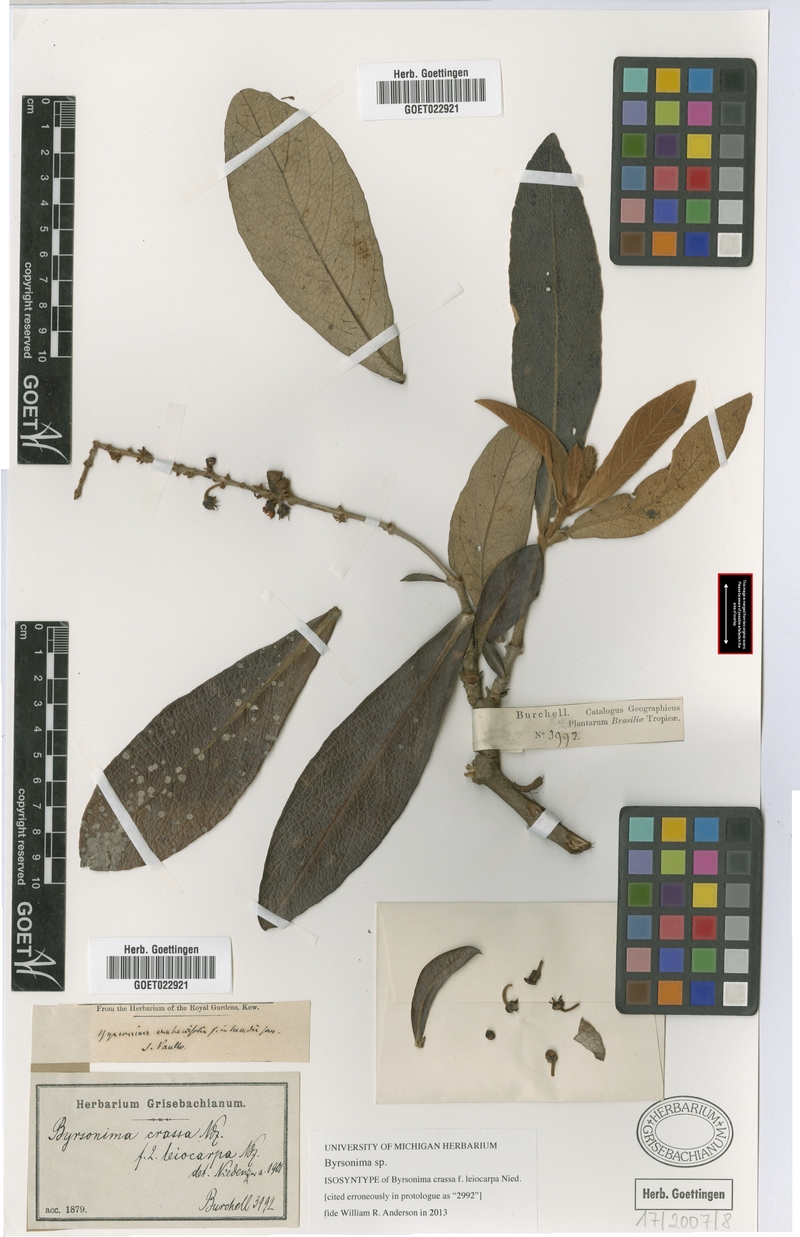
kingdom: Plantae
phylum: Tracheophyta
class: Magnoliopsida
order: Malpighiales
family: Malpighiaceae
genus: Byrsonima
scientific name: Byrsonima
